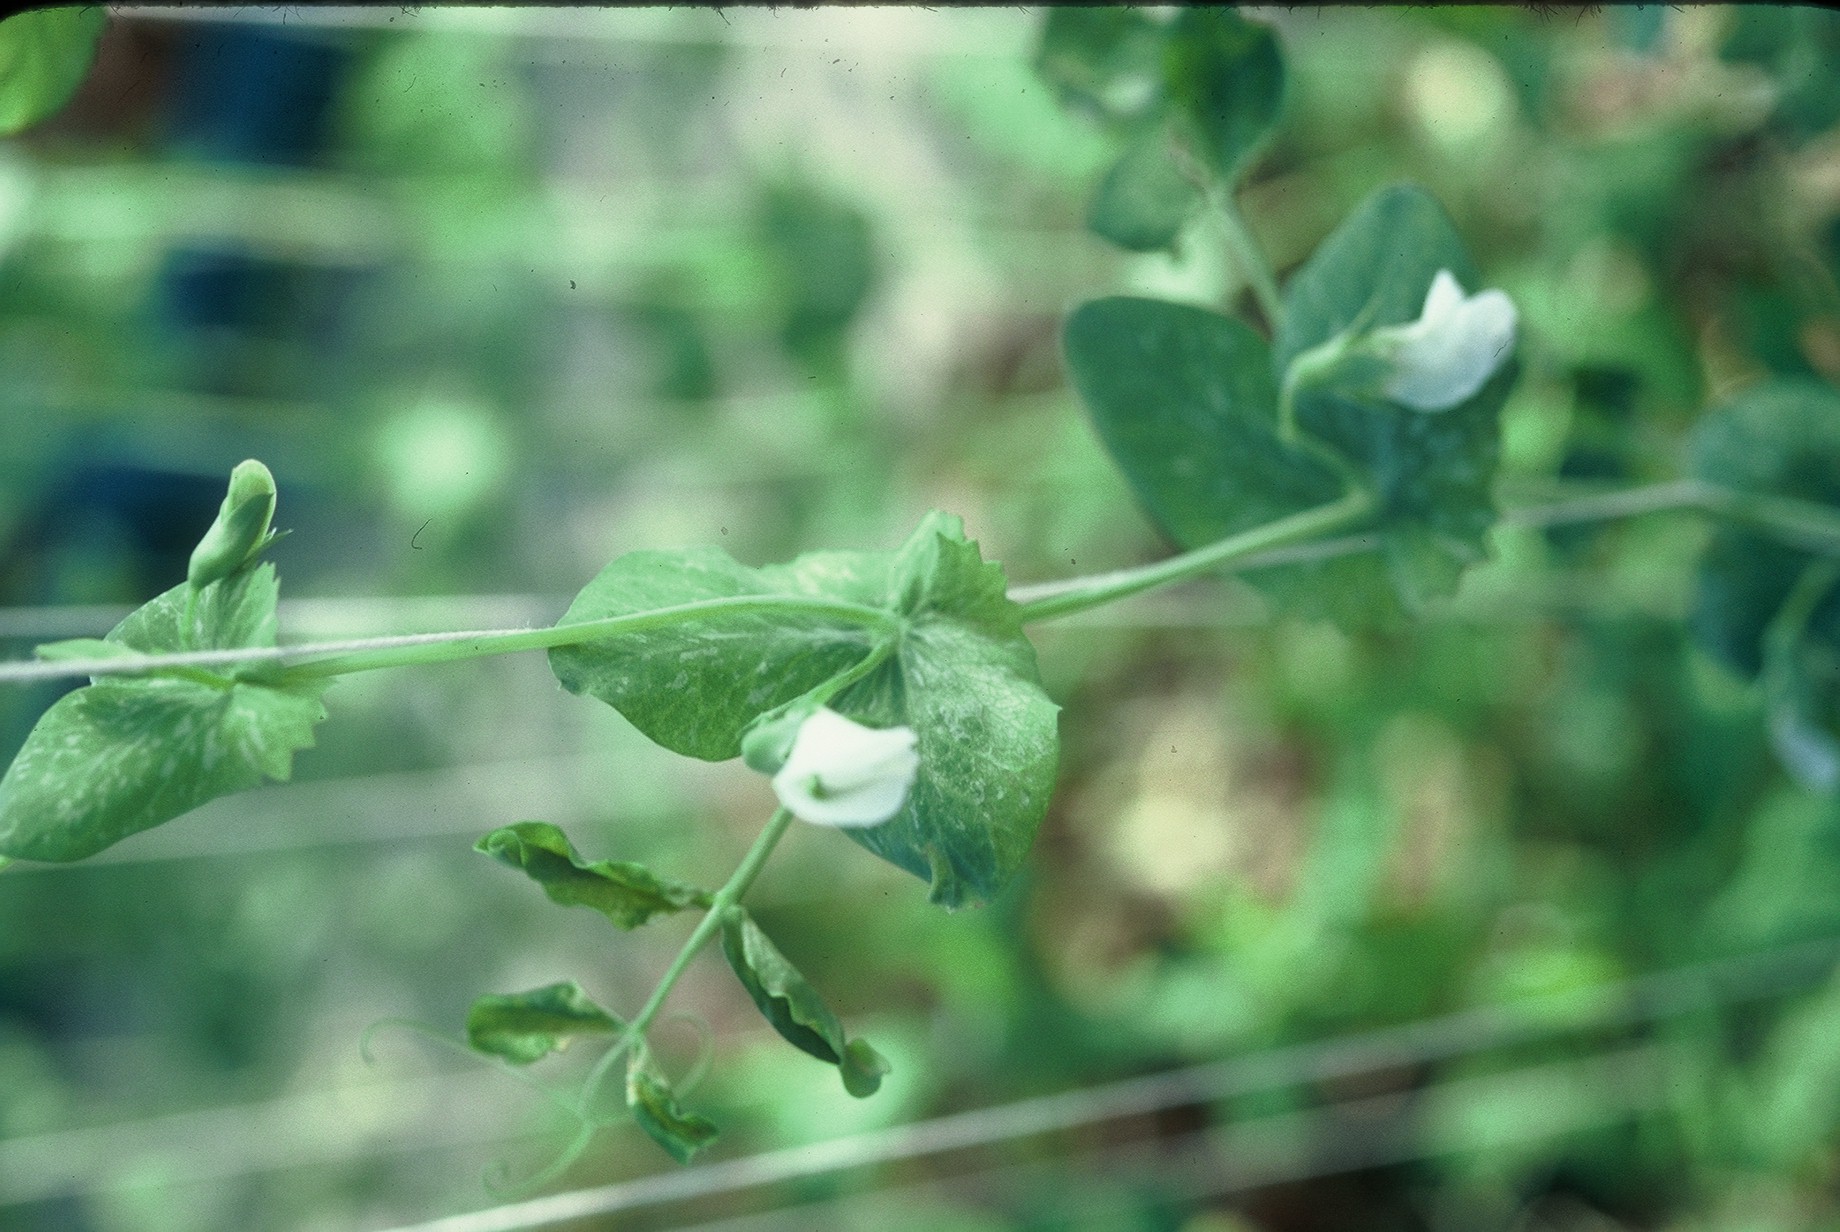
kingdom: Plantae
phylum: Tracheophyta
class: Magnoliopsida
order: Fabales
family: Fabaceae
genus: Lathyrus
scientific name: Lathyrus oleraceus
